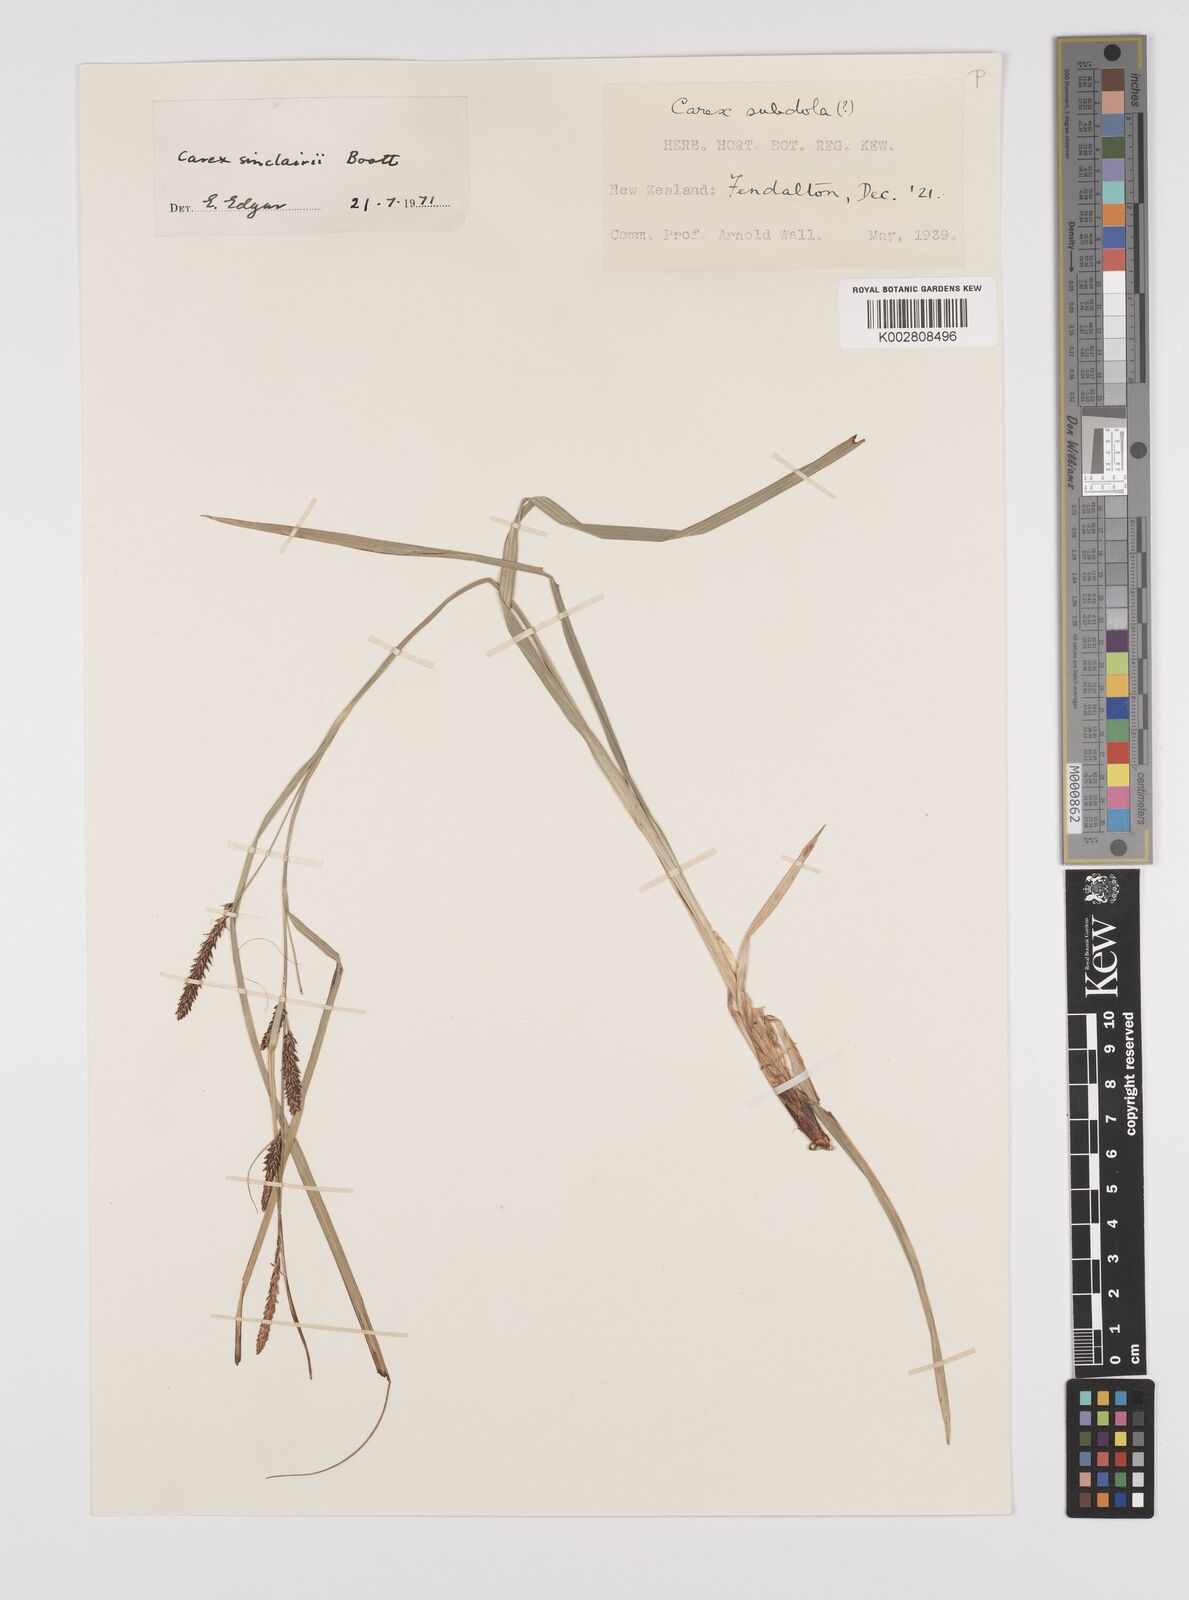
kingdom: Plantae
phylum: Tracheophyta
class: Liliopsida
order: Poales
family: Cyperaceae
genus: Carex
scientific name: Carex sinclairii
